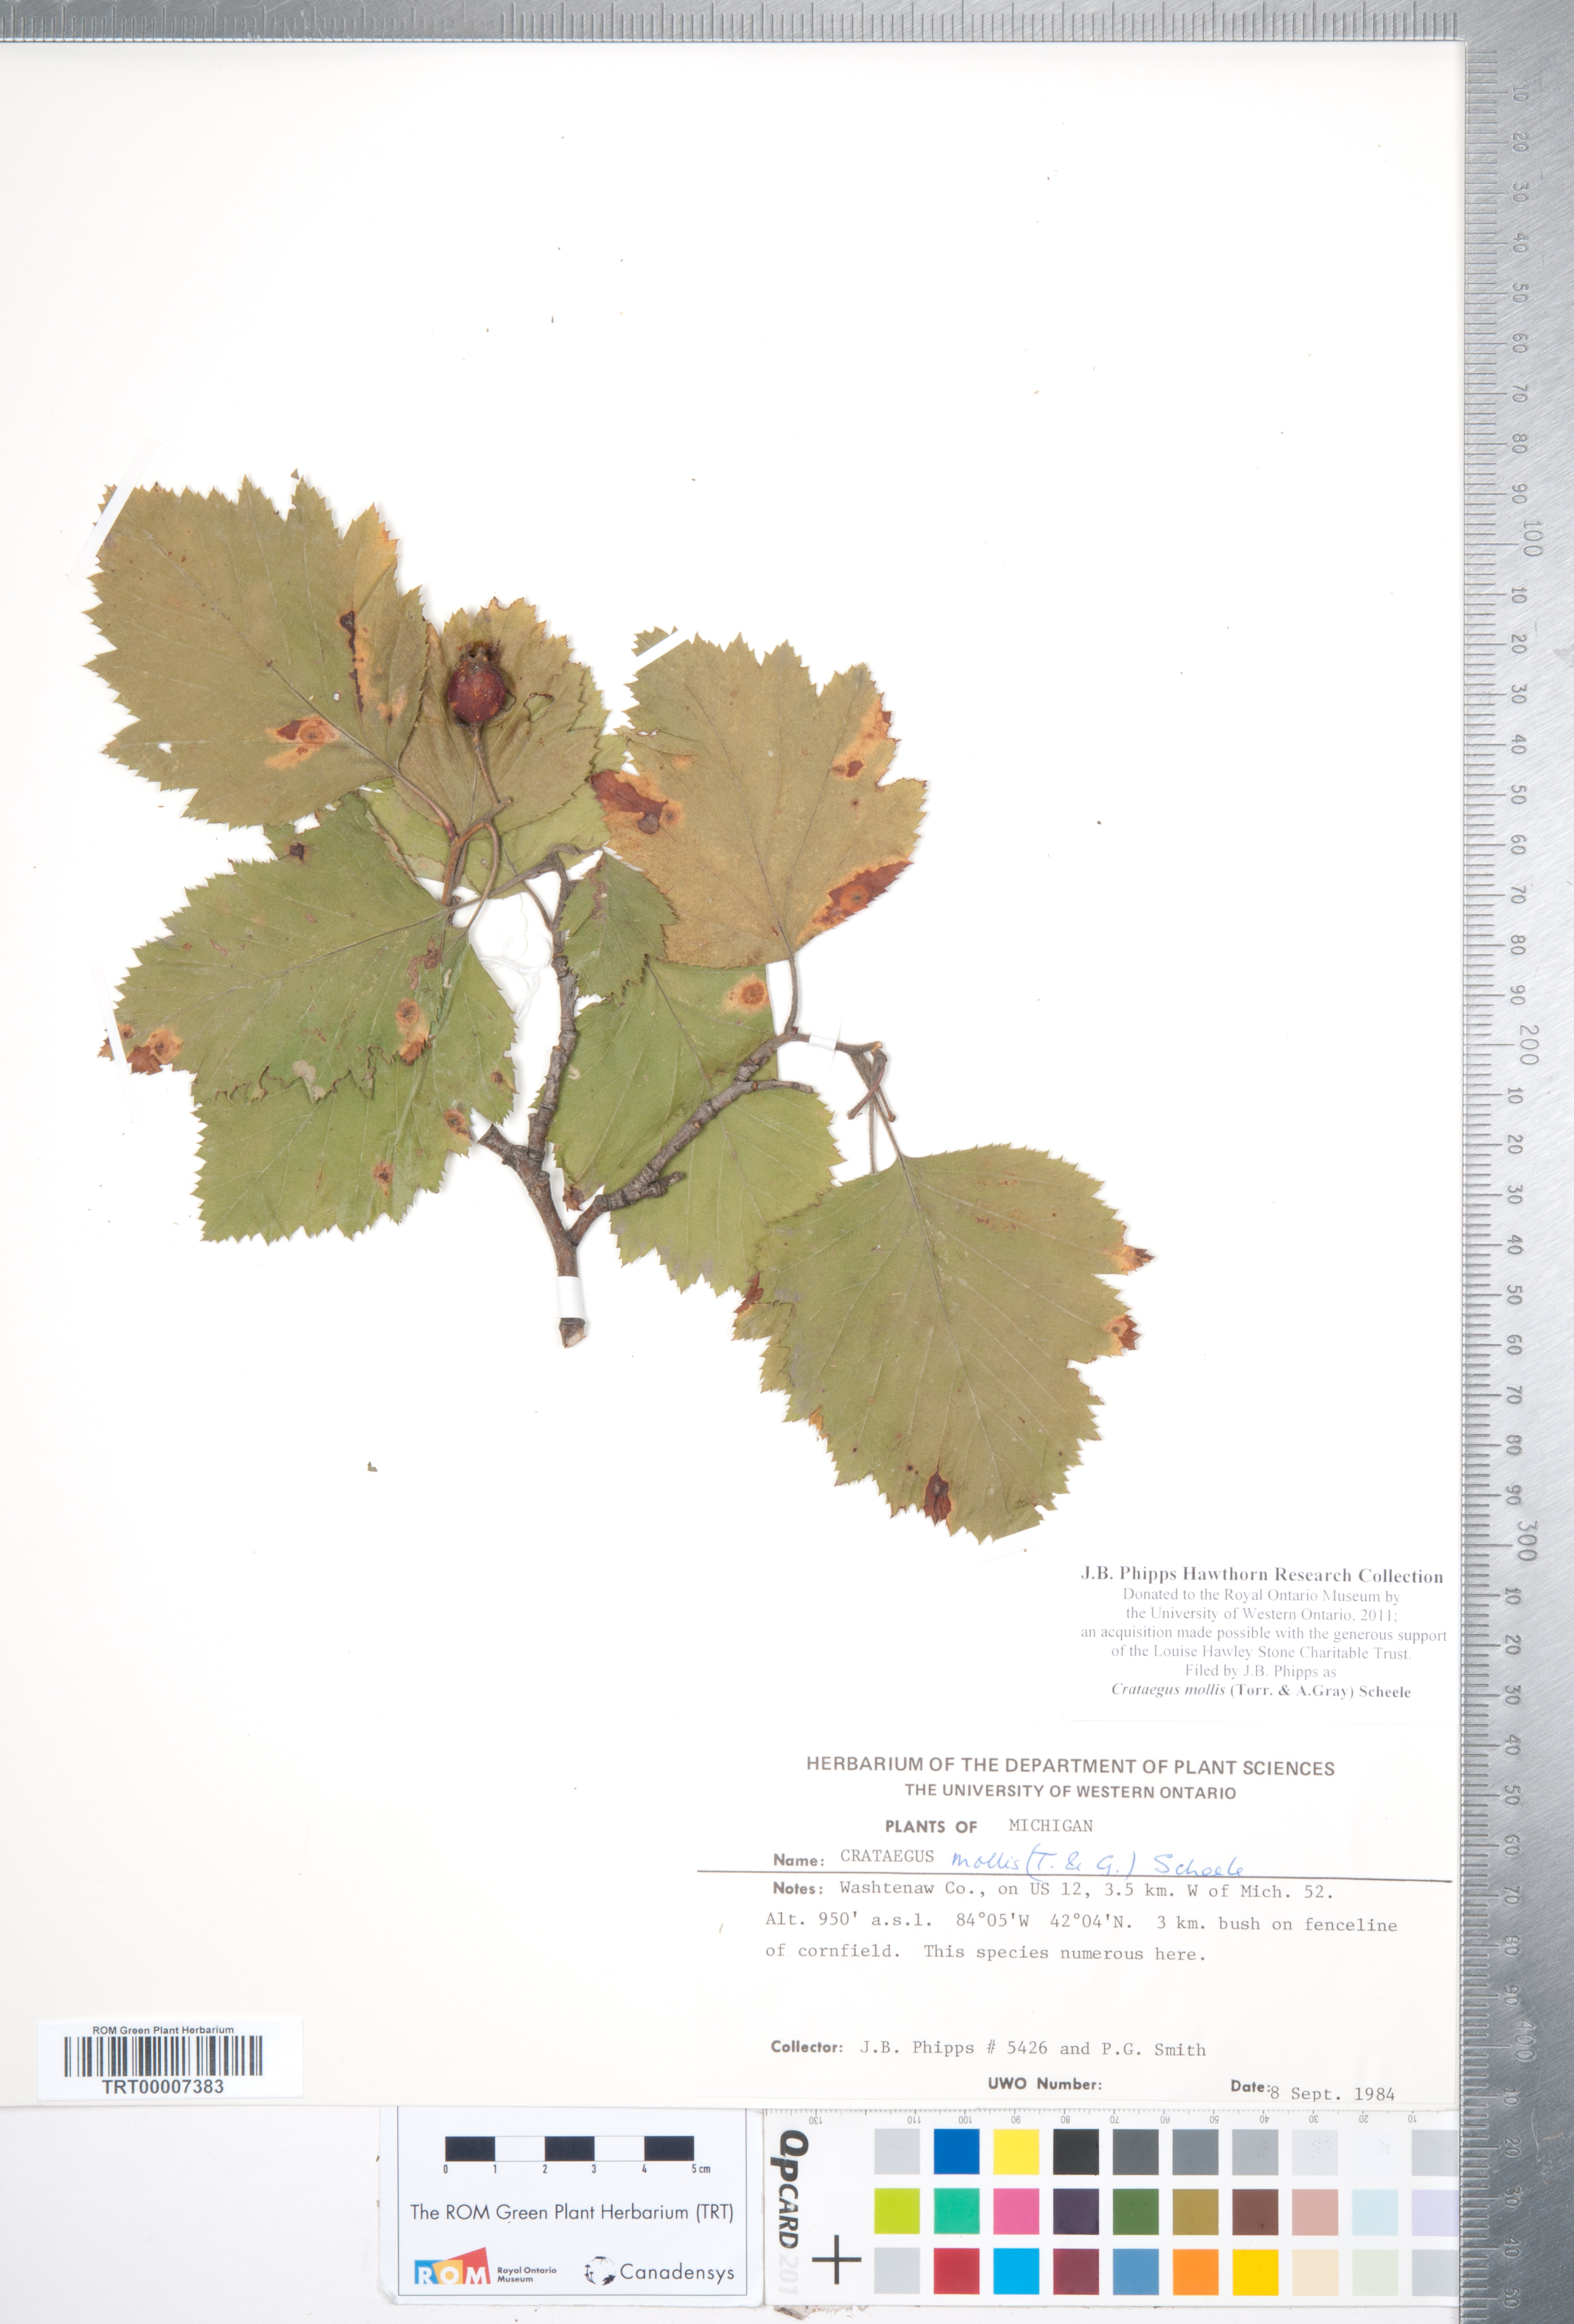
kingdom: Plantae
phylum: Tracheophyta
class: Magnoliopsida
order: Rosales
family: Rosaceae
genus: Crataegus
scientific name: Crataegus mollis
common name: Downy hawthorn
